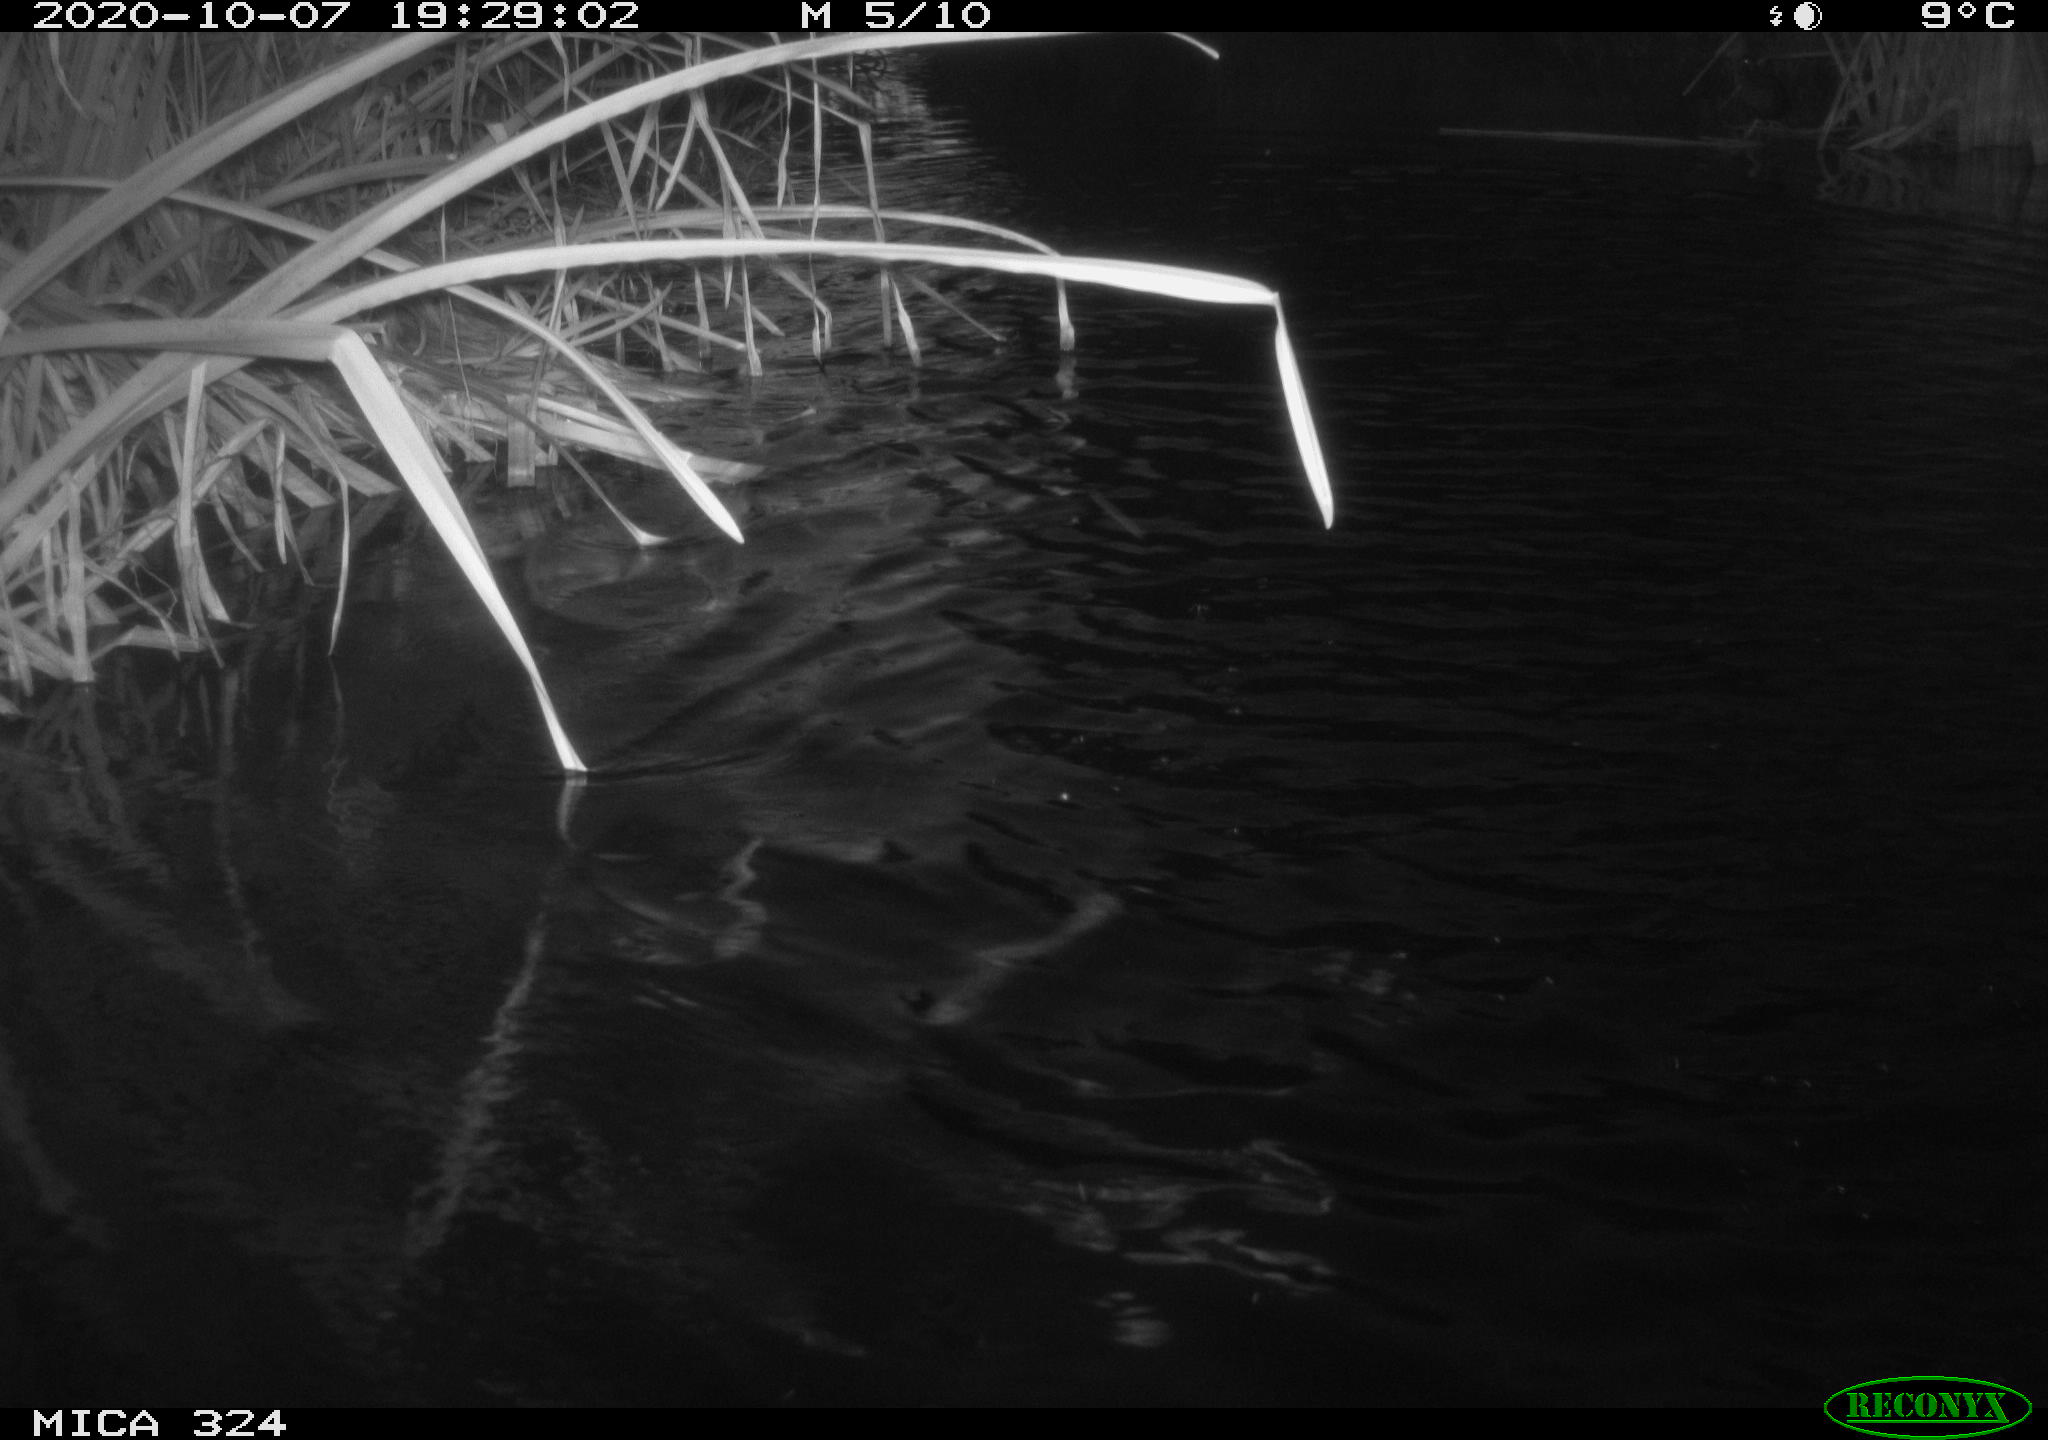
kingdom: Animalia
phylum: Chordata
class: Aves
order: Gruiformes
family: Rallidae
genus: Gallinula
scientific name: Gallinula chloropus
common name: Common moorhen
